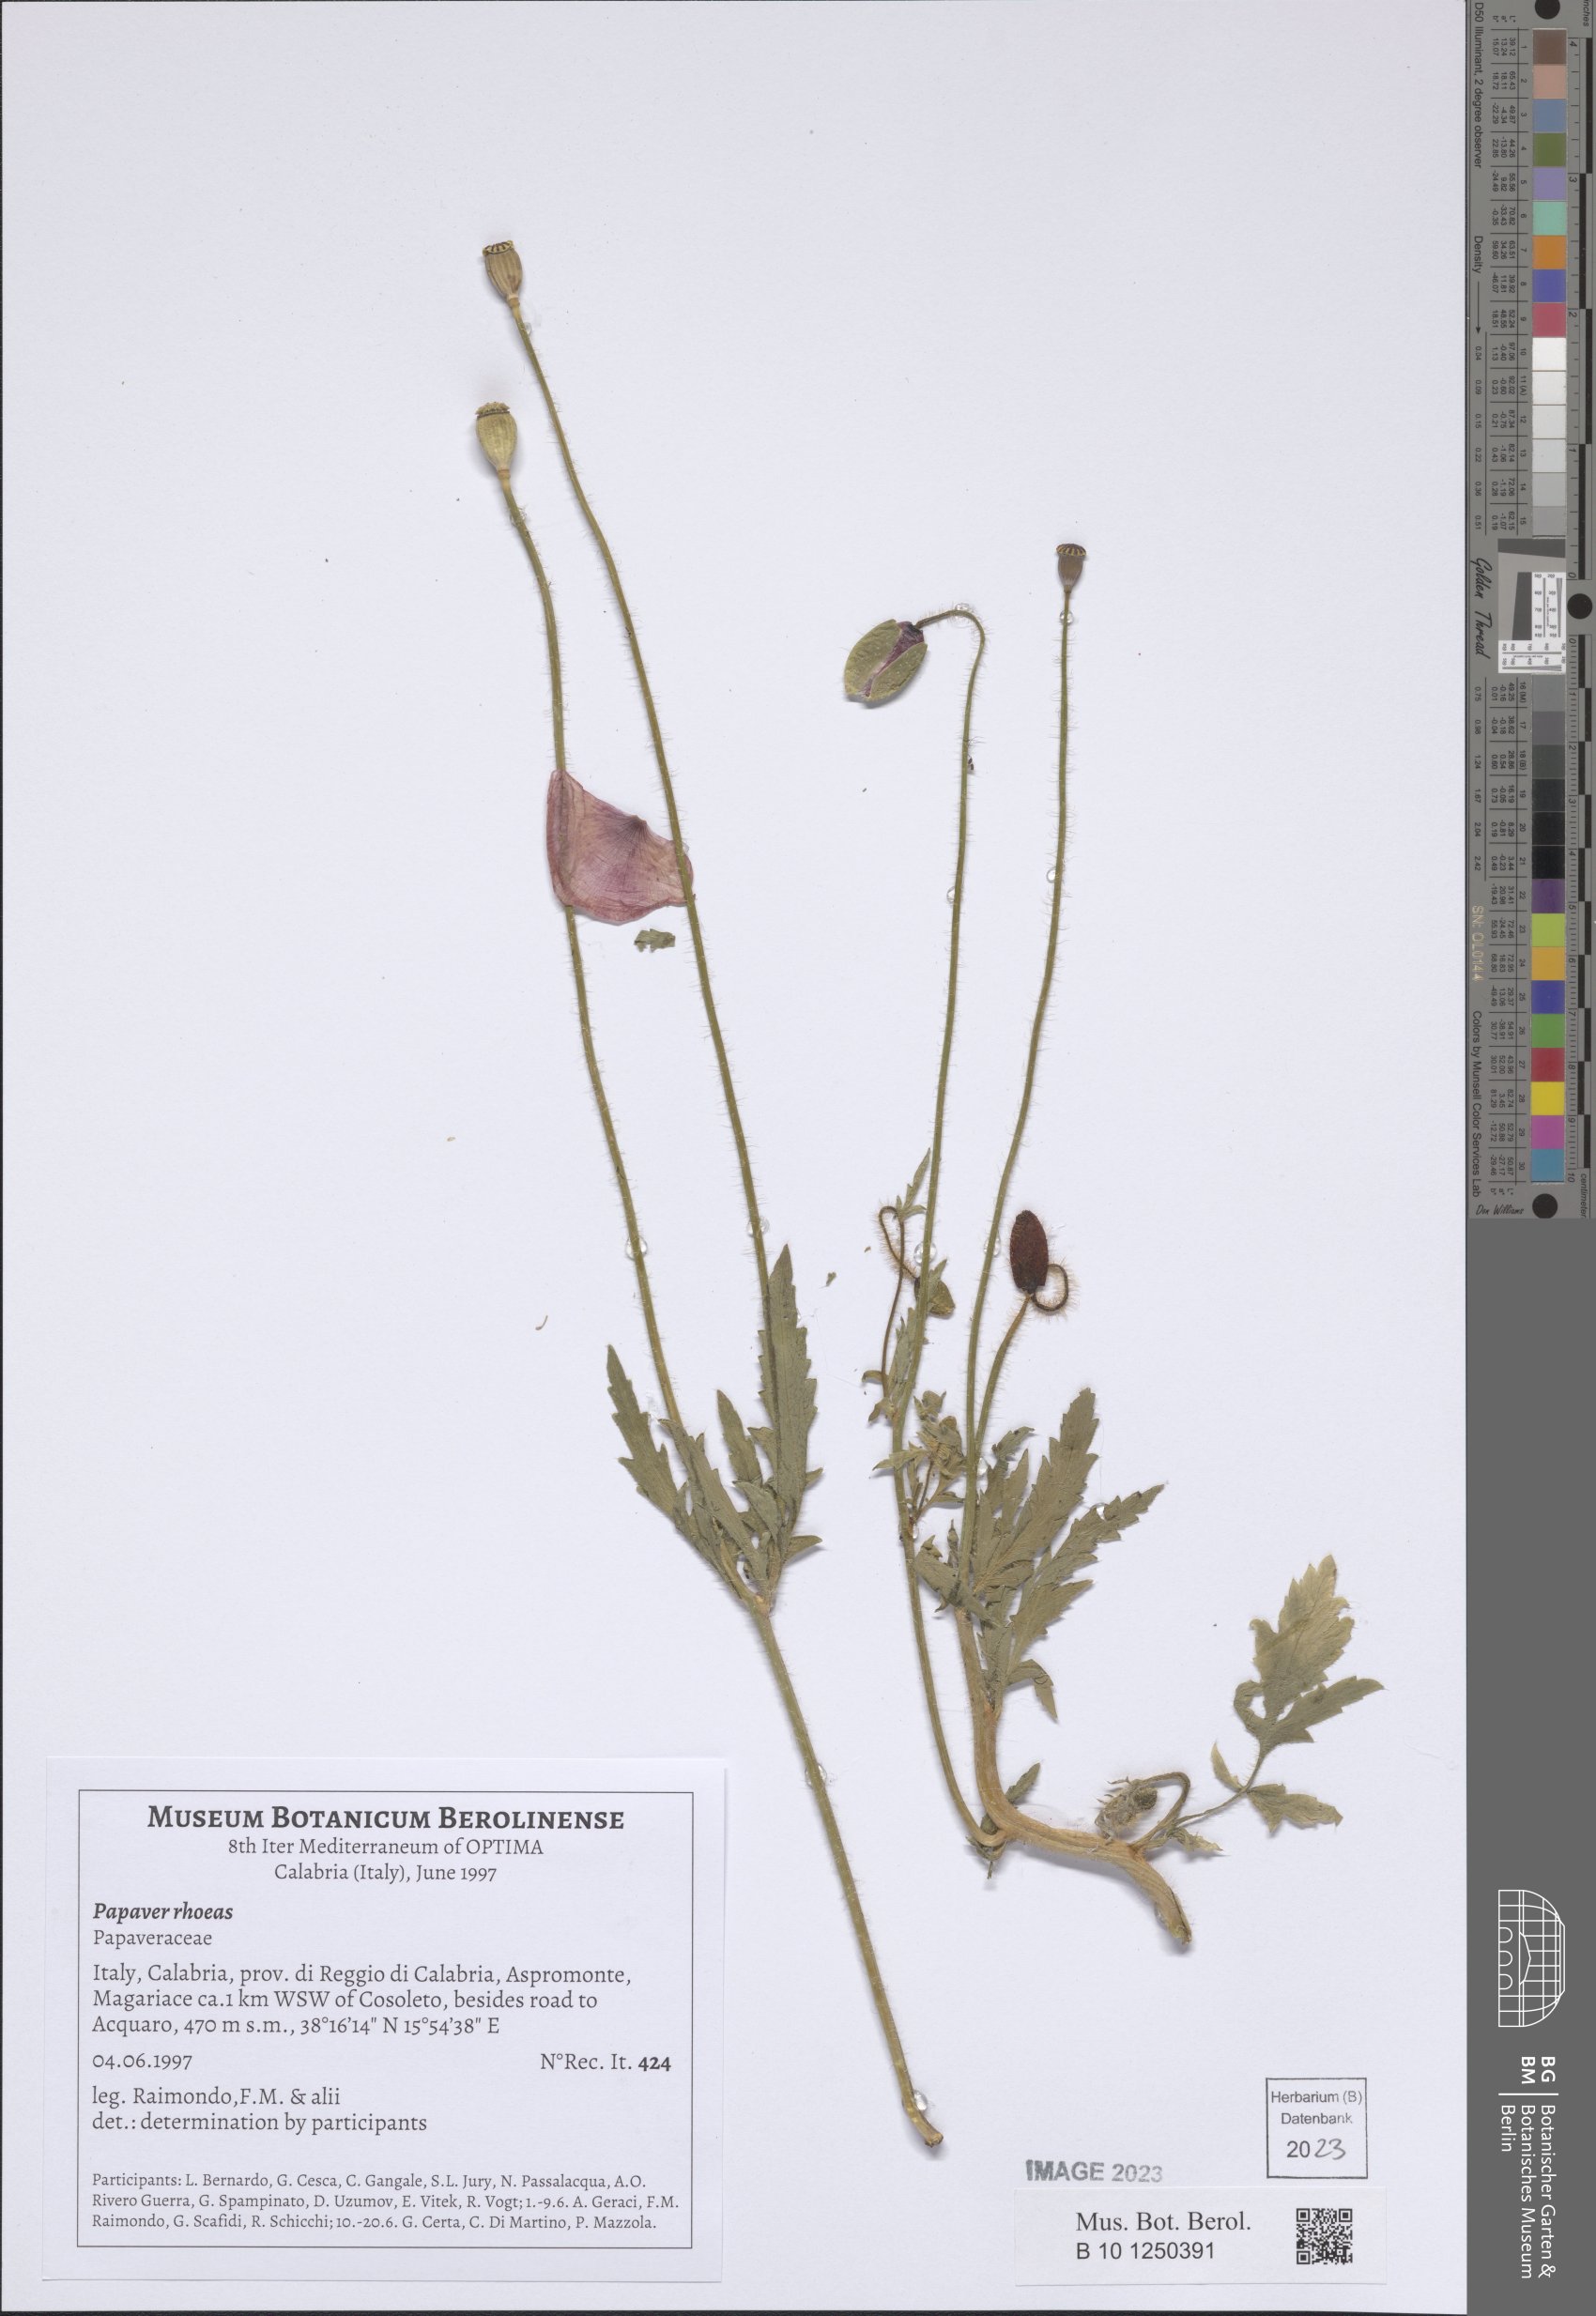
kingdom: Plantae
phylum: Tracheophyta
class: Magnoliopsida
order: Ranunculales
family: Papaveraceae
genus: Papaver
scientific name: Papaver rhoeas
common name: Corn poppy
